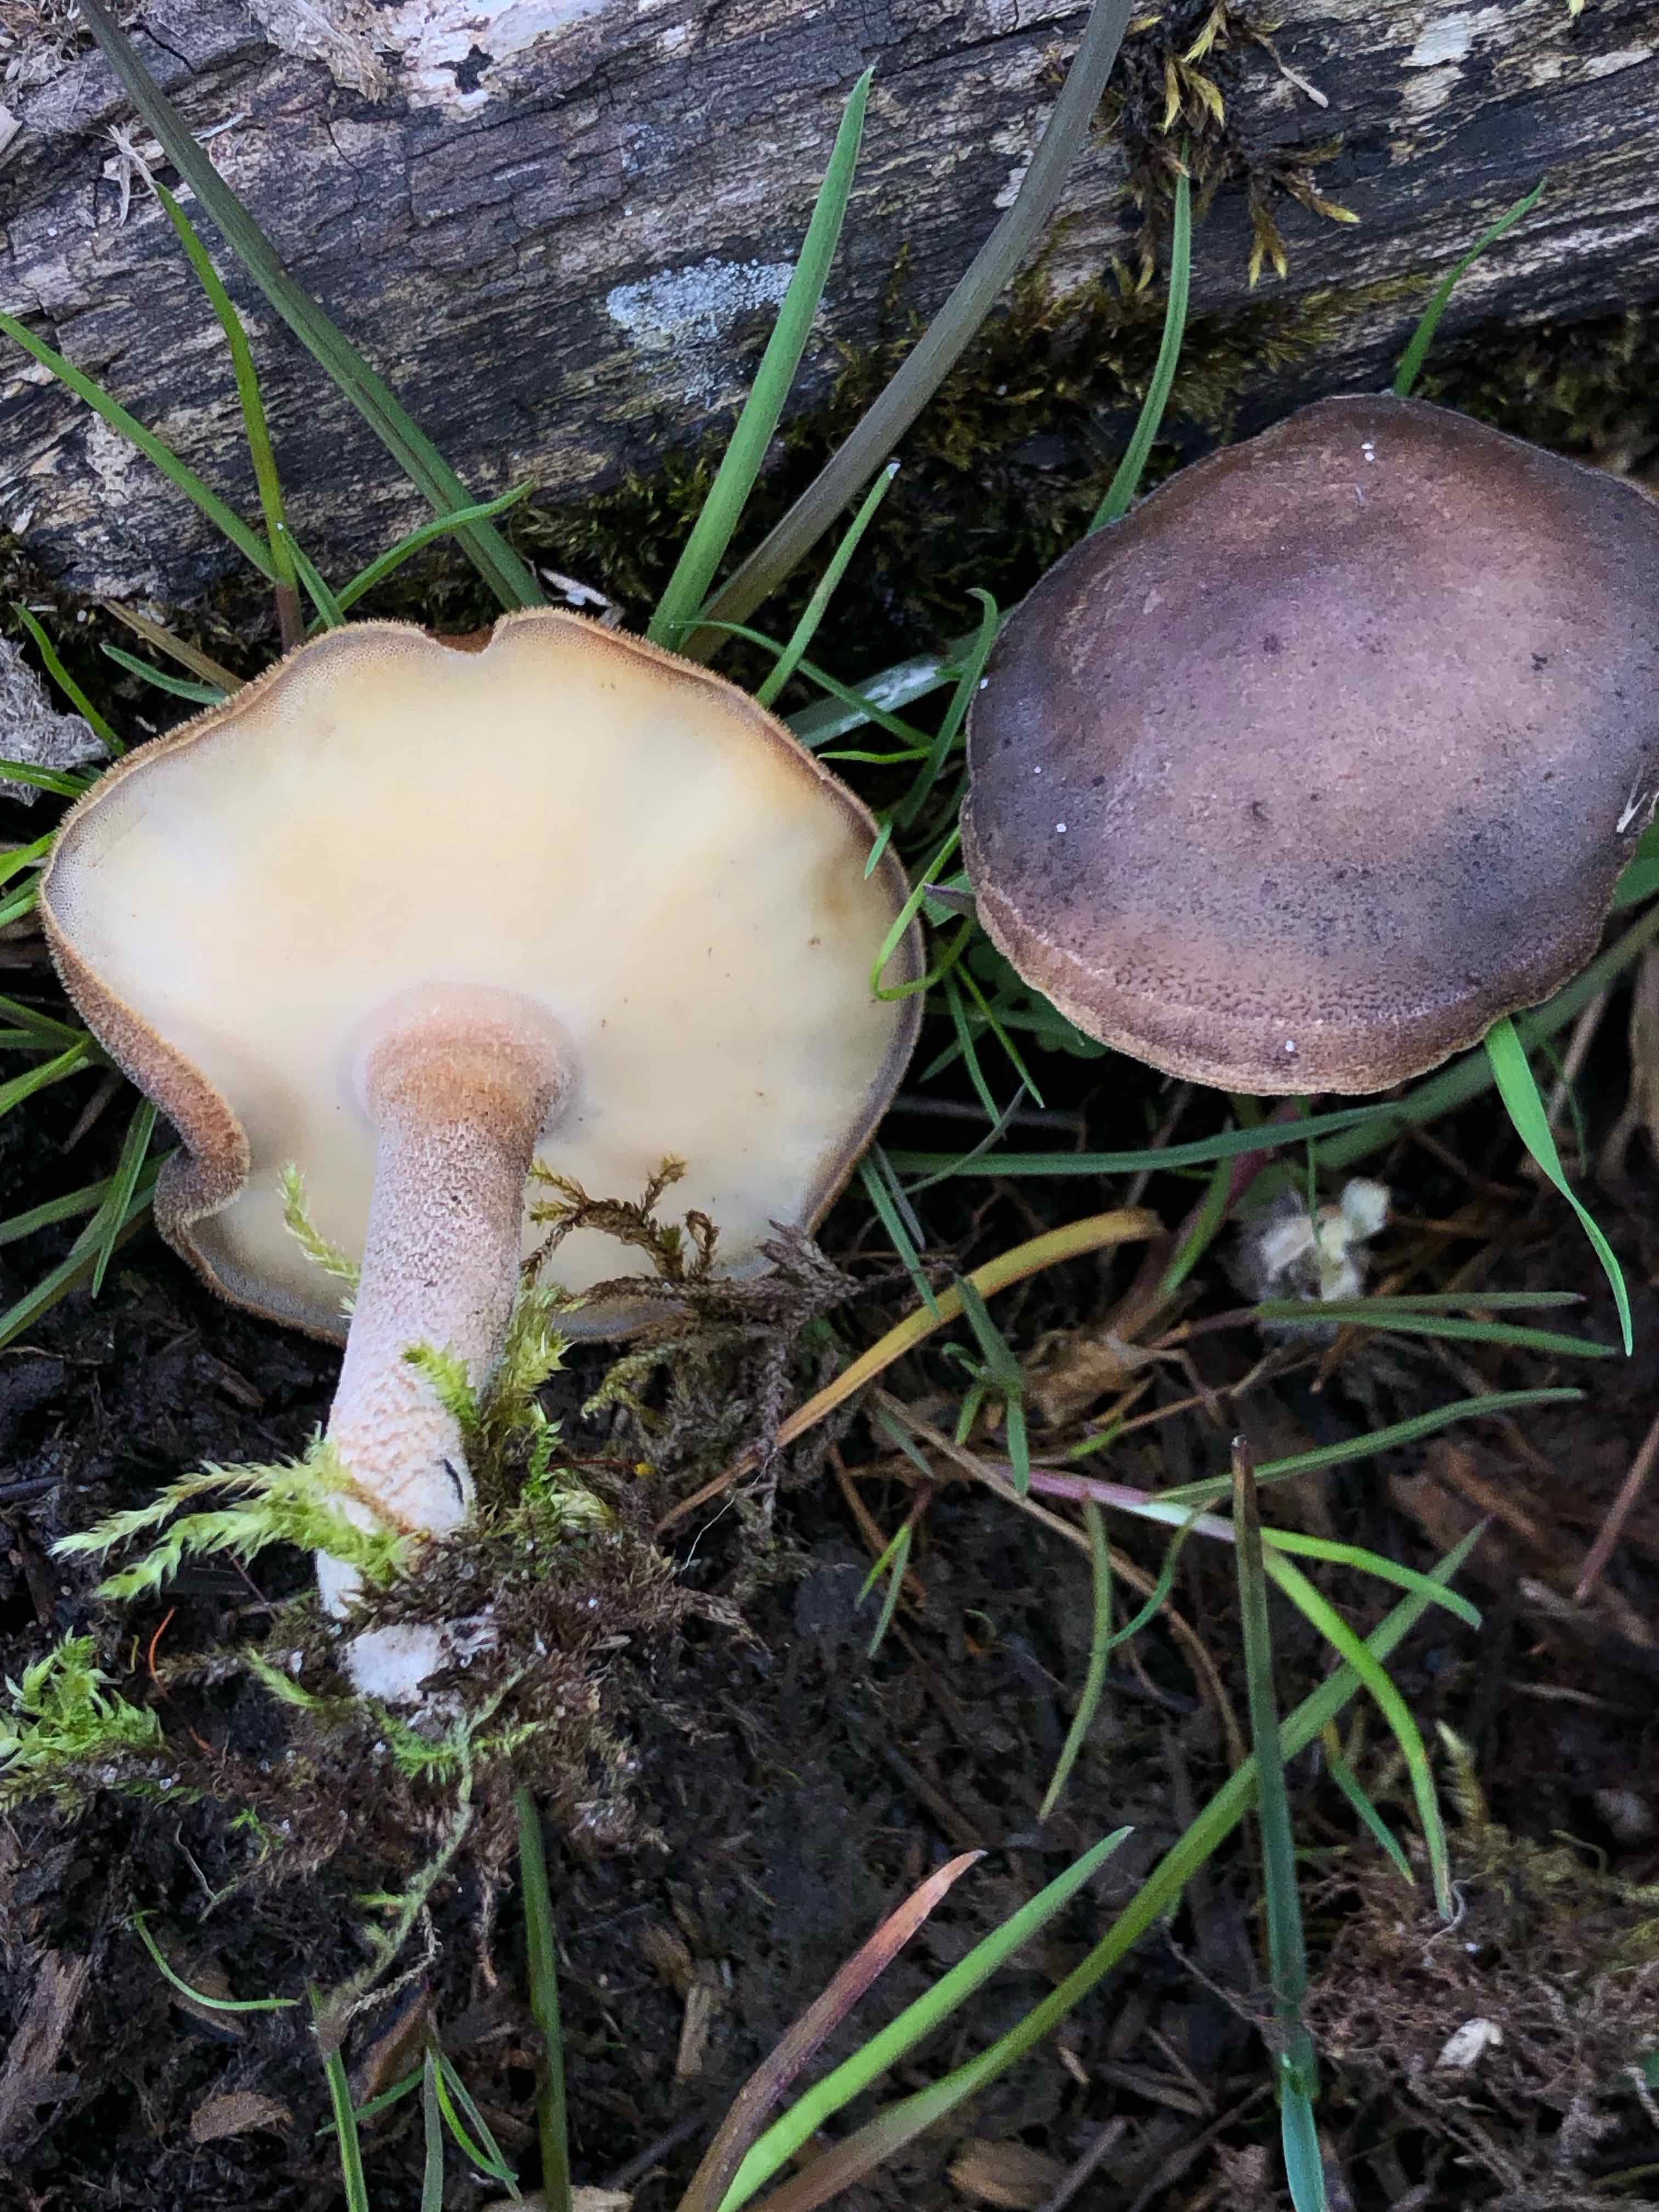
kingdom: Fungi
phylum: Basidiomycota
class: Agaricomycetes
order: Polyporales
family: Polyporaceae
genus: Lentinus
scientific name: Lentinus substrictus
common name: forårs-stilkporesvamp
